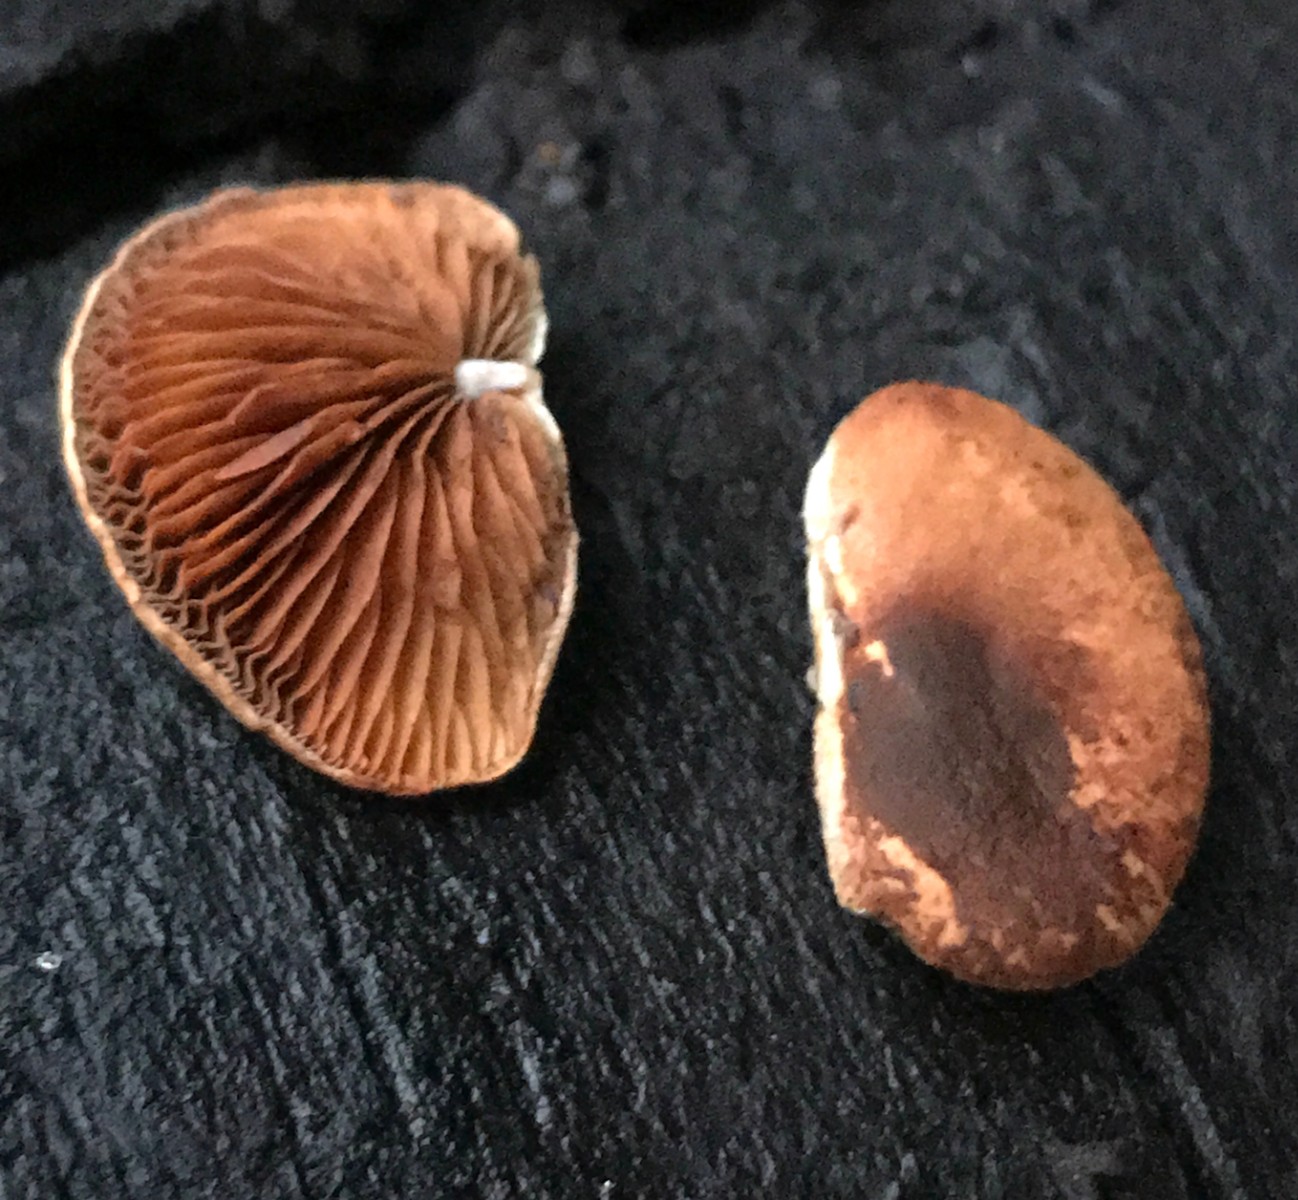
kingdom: Fungi
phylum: Basidiomycota
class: Agaricomycetes
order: Agaricales
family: Strophariaceae
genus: Deconica
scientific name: Deconica horizontalis
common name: ved-stråhat
